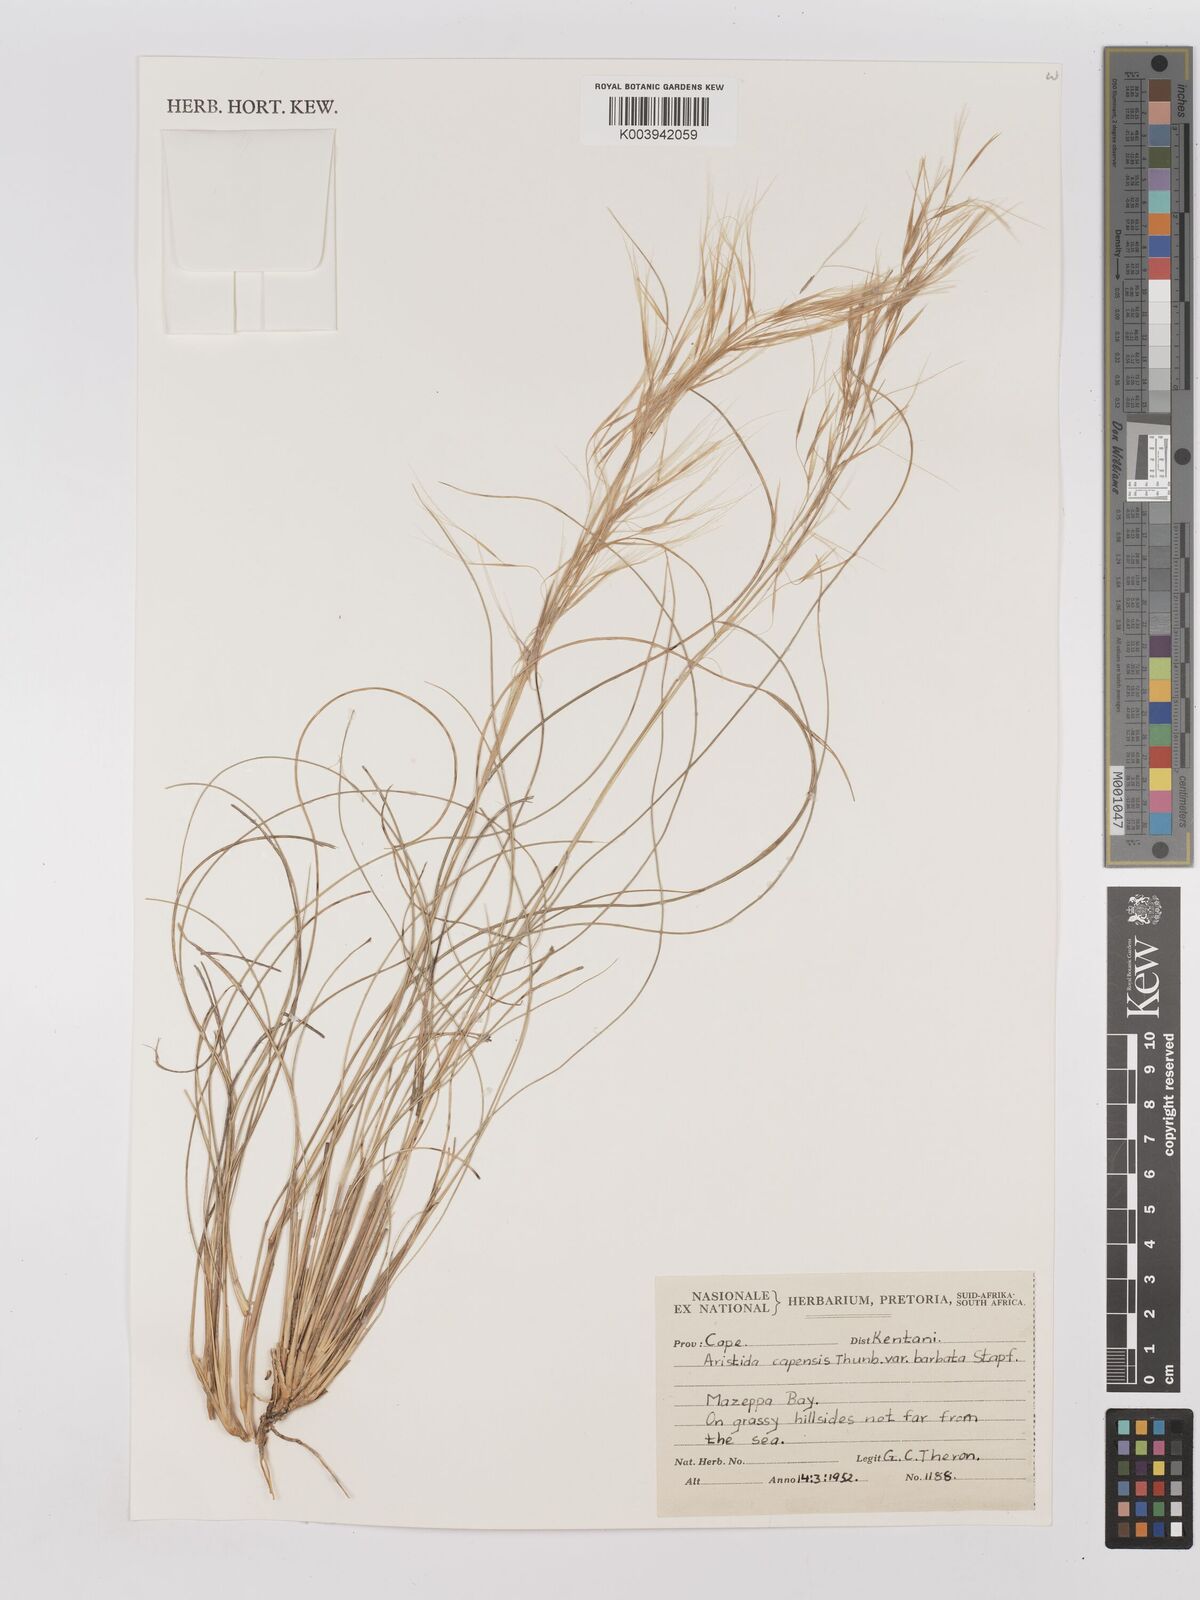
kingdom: Plantae
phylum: Tracheophyta
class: Liliopsida
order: Poales
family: Poaceae
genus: Stipagrostis
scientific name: Stipagrostis zeyheri
